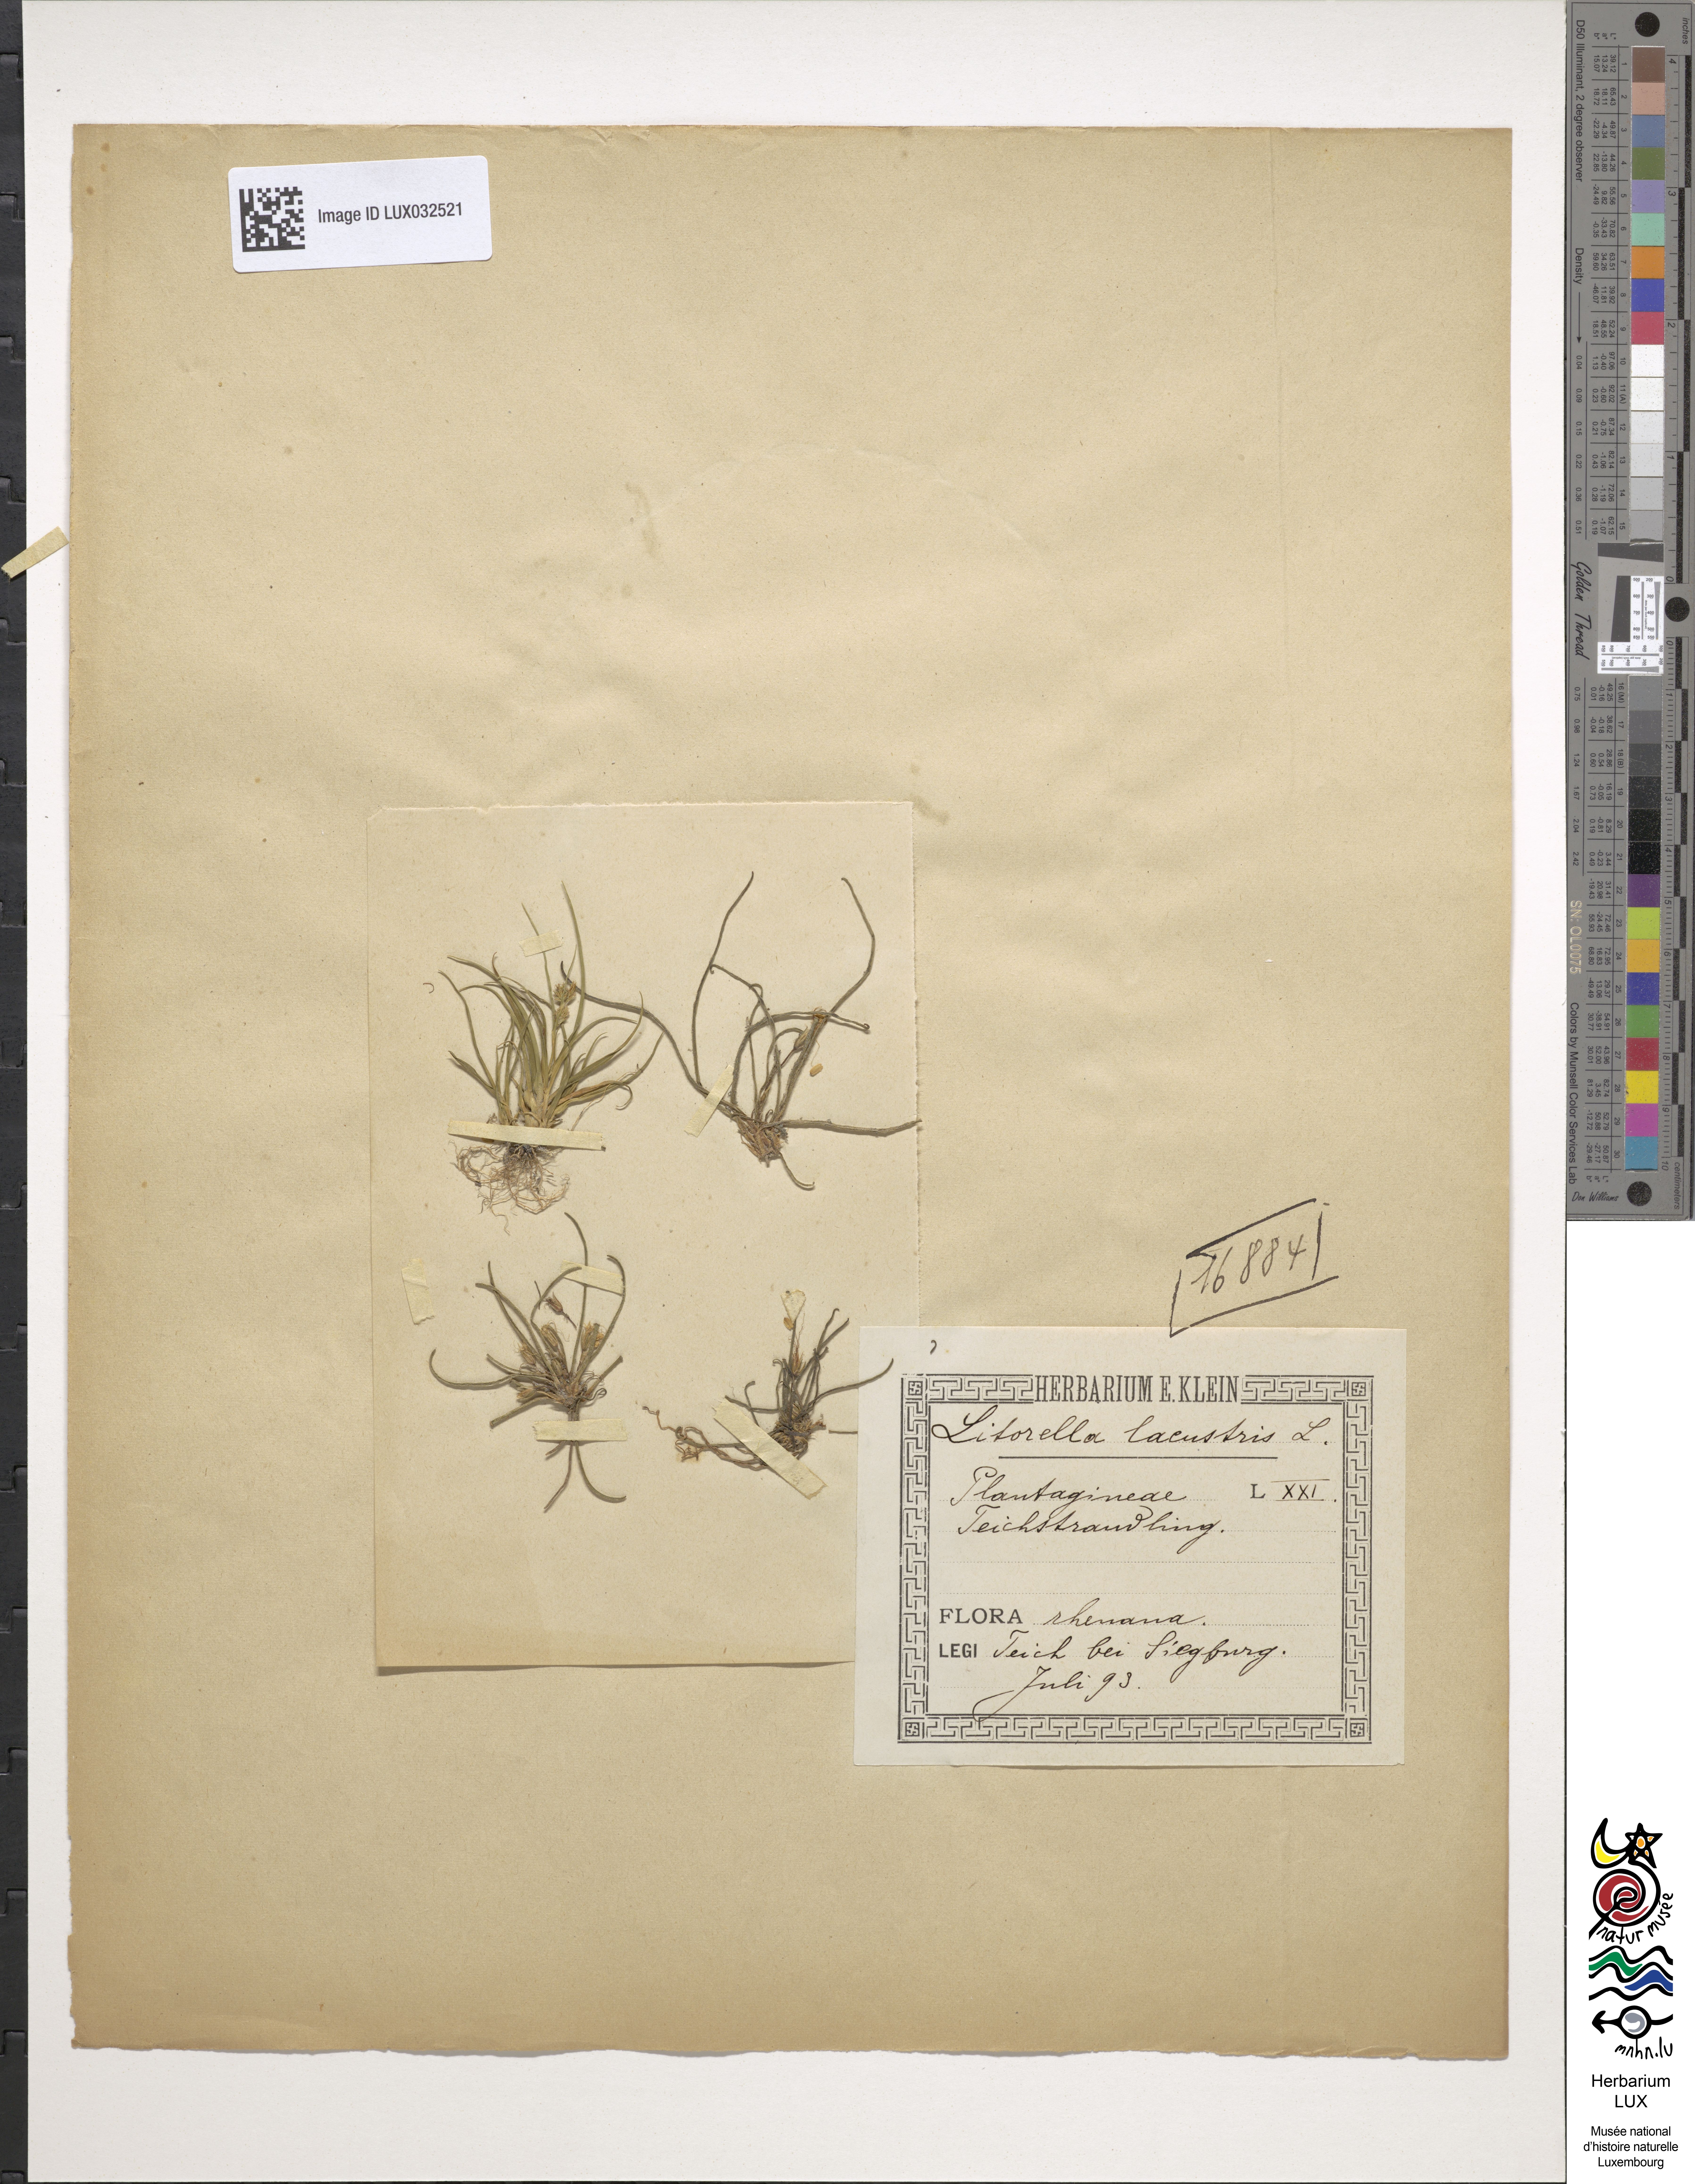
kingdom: Plantae
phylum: Tracheophyta
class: Magnoliopsida
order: Lamiales
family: Plantaginaceae
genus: Littorella
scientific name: Littorella uniflora
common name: Shoreweed
